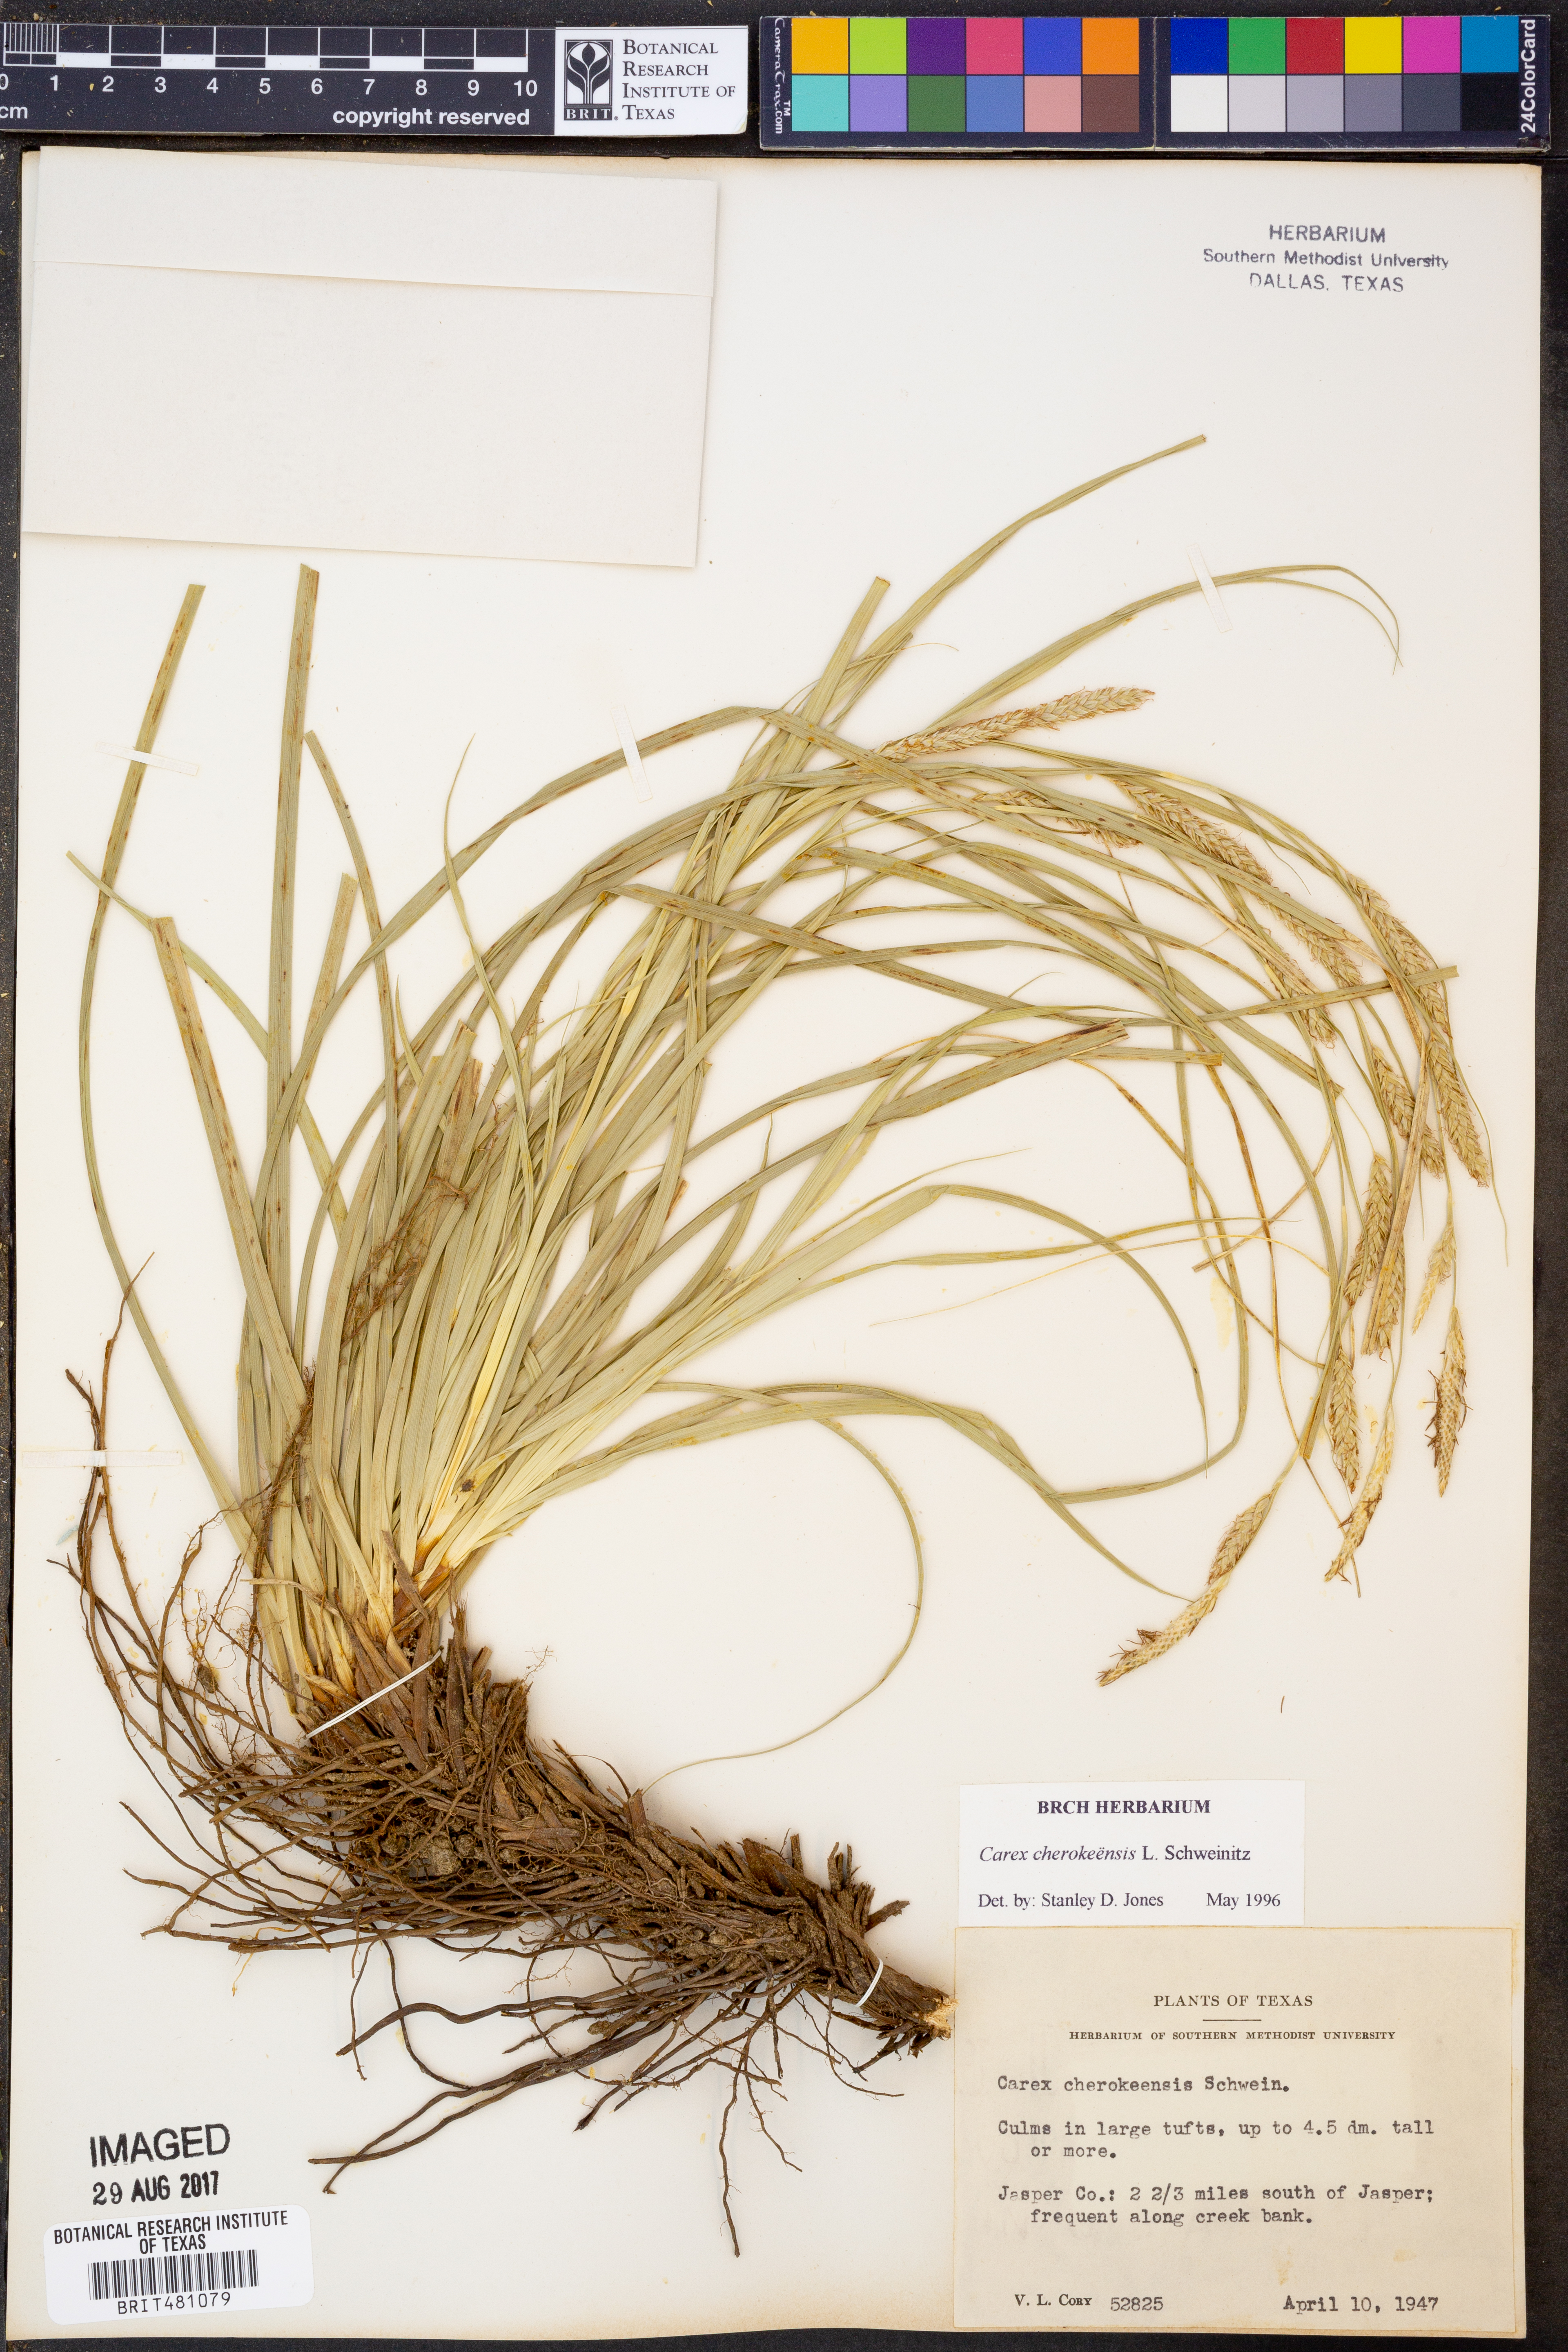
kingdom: Plantae
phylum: Tracheophyta
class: Liliopsida
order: Poales
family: Cyperaceae
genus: Carex
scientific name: Carex cherokeensis
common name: Cherokee sedge
